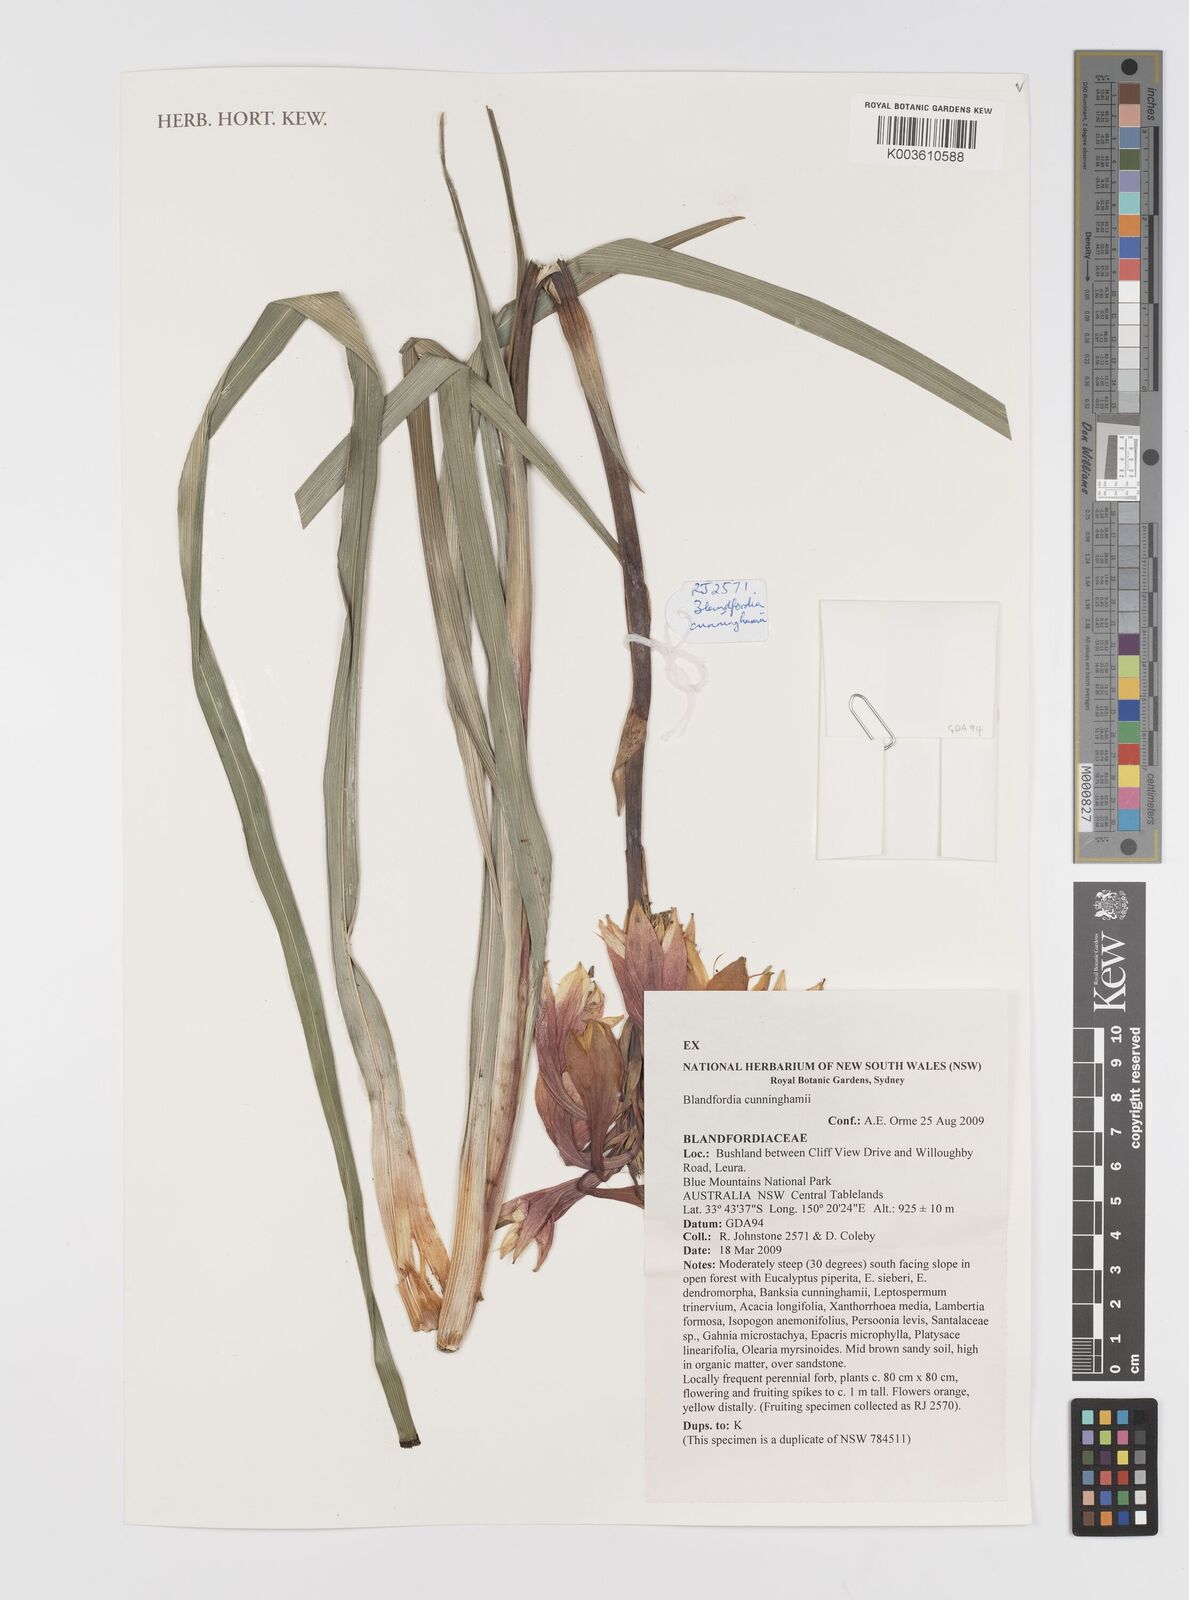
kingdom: Plantae
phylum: Tracheophyta
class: Liliopsida
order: Asparagales
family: Blandfordiaceae
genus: Blandfordia
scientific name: Blandfordia cunninghamii
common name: Christmas-bell
